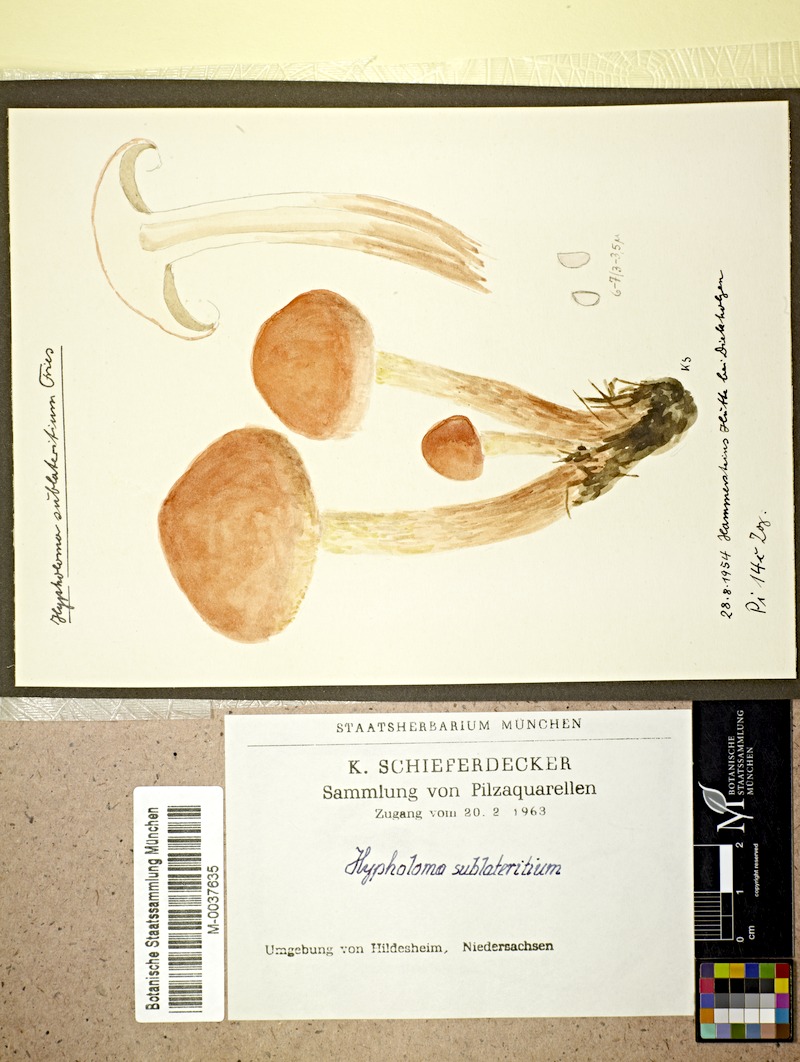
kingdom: Fungi
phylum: Basidiomycota
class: Agaricomycetes
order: Agaricales
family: Strophariaceae
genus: Hypholoma
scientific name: Hypholoma lateritium
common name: Brick caps
